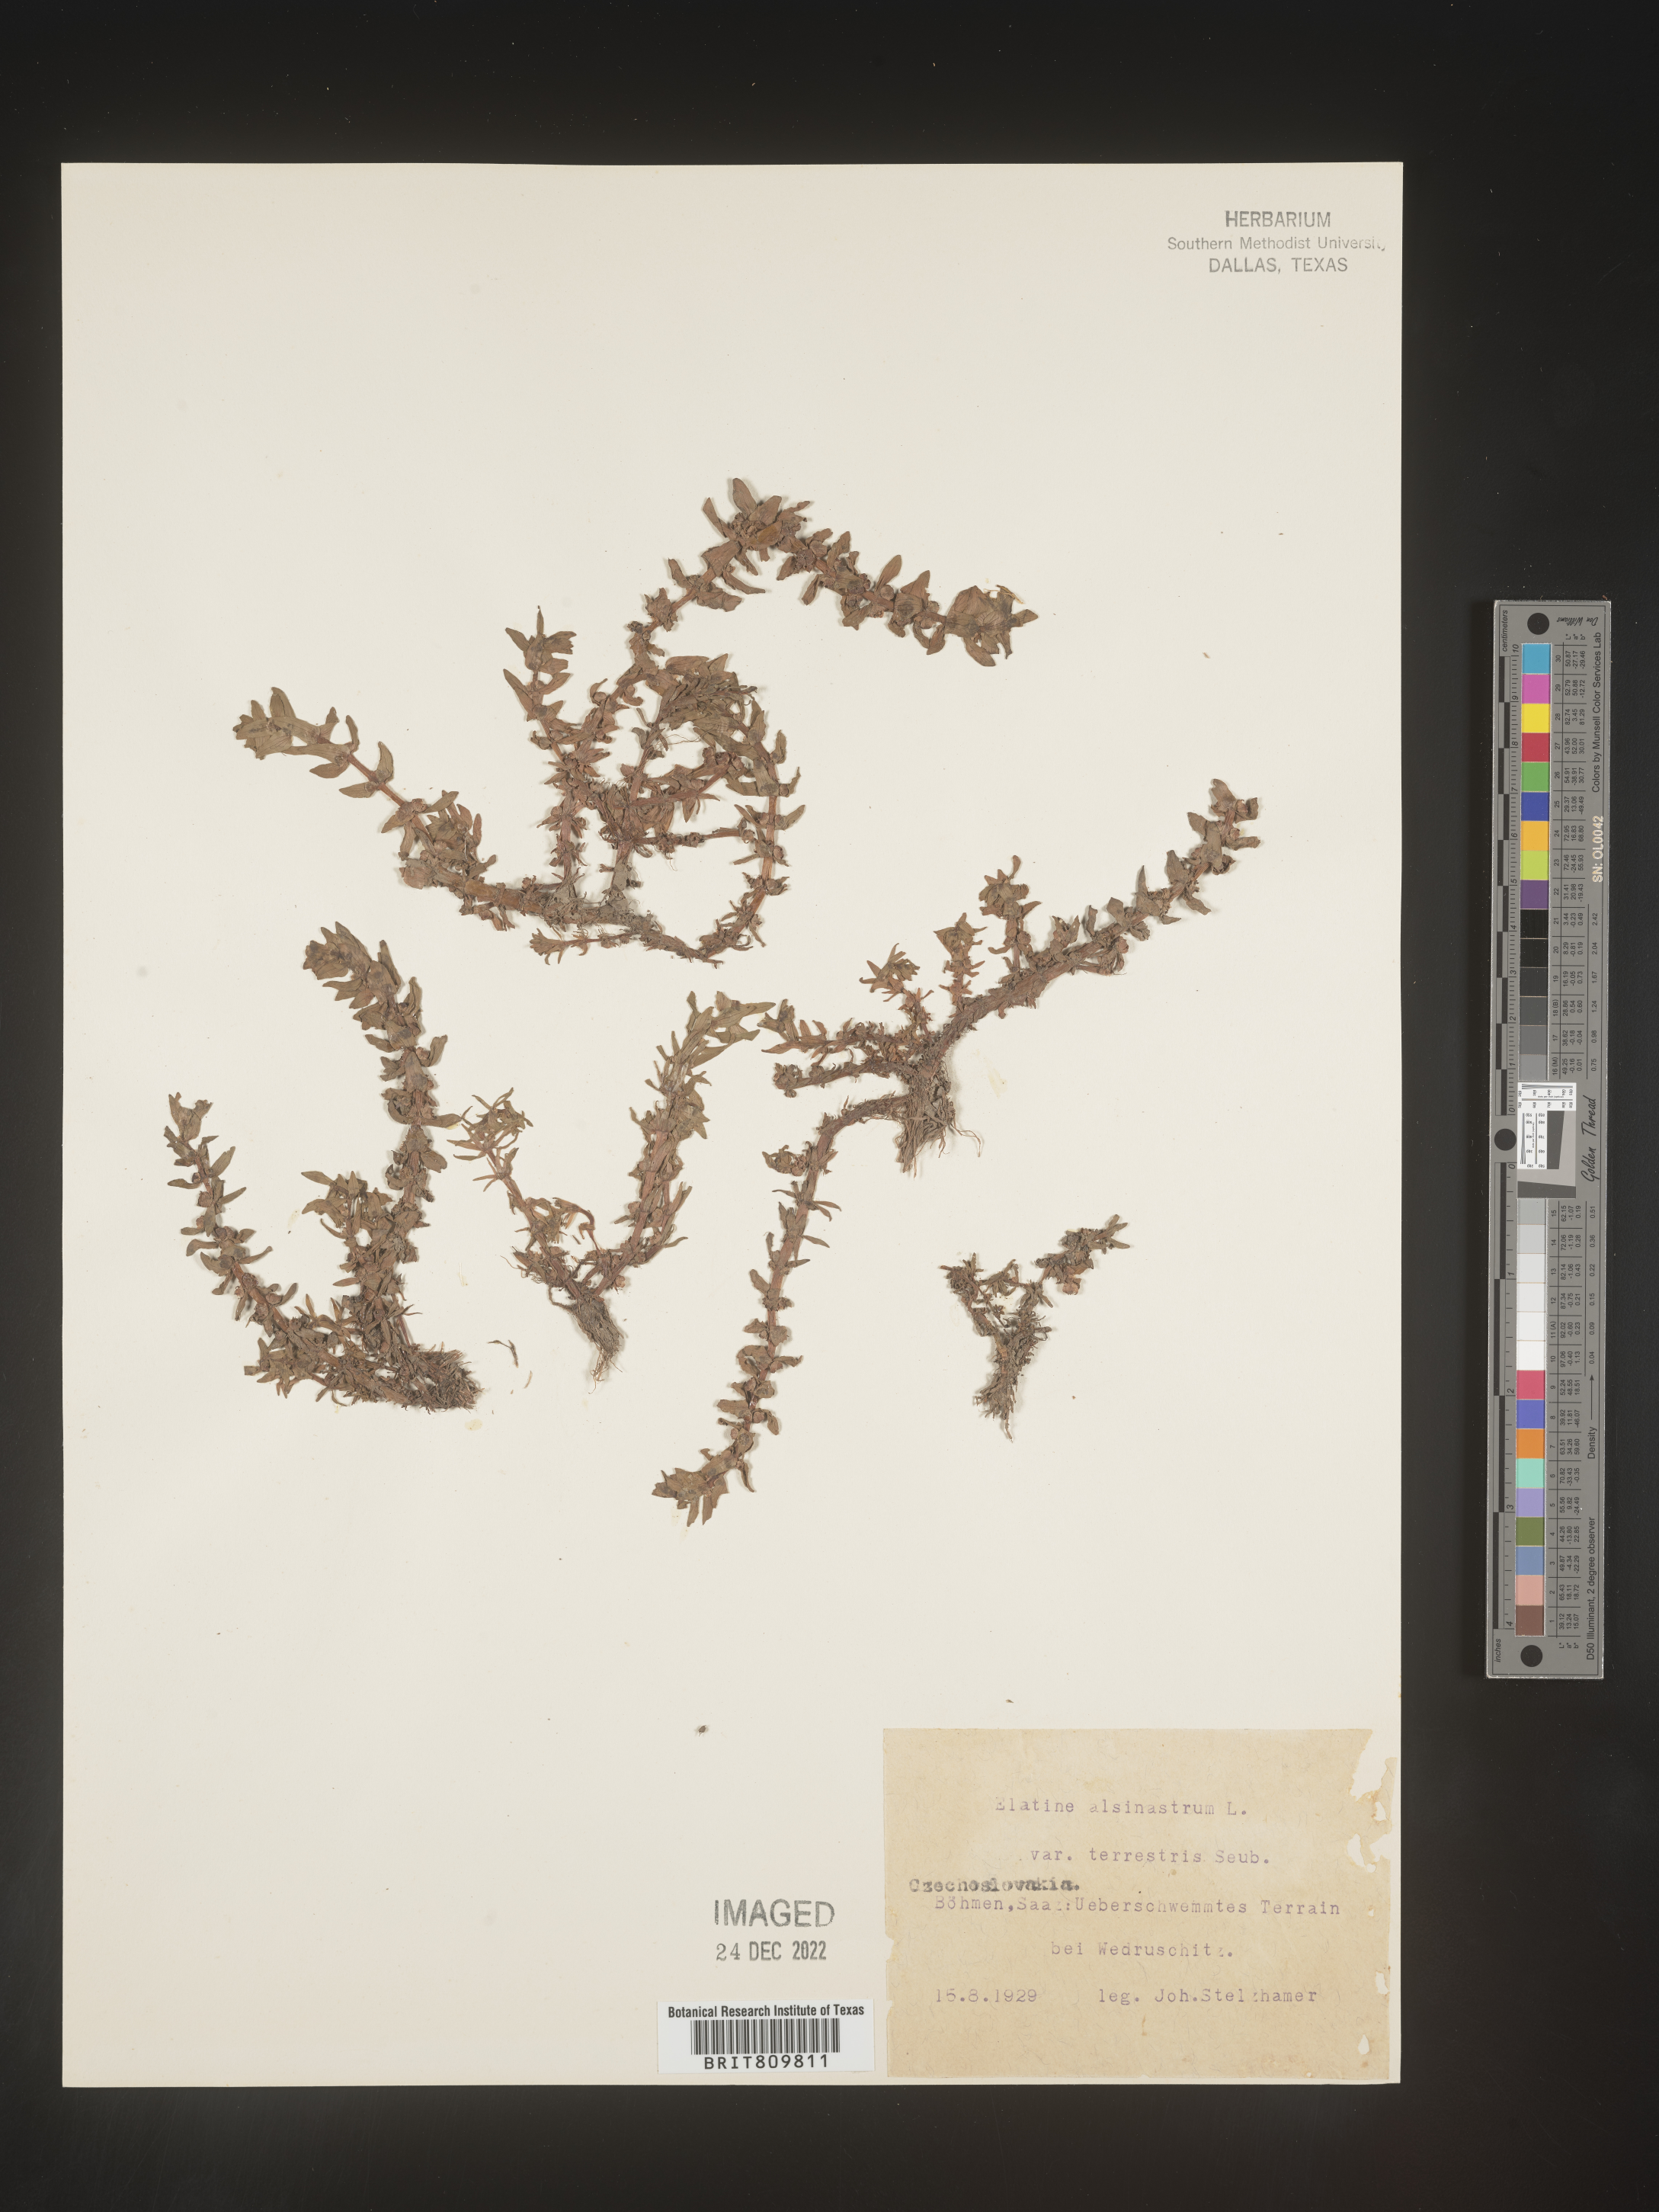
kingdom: Plantae
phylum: Tracheophyta
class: Magnoliopsida
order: Malpighiales
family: Elatinaceae
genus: Elatine
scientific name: Elatine
